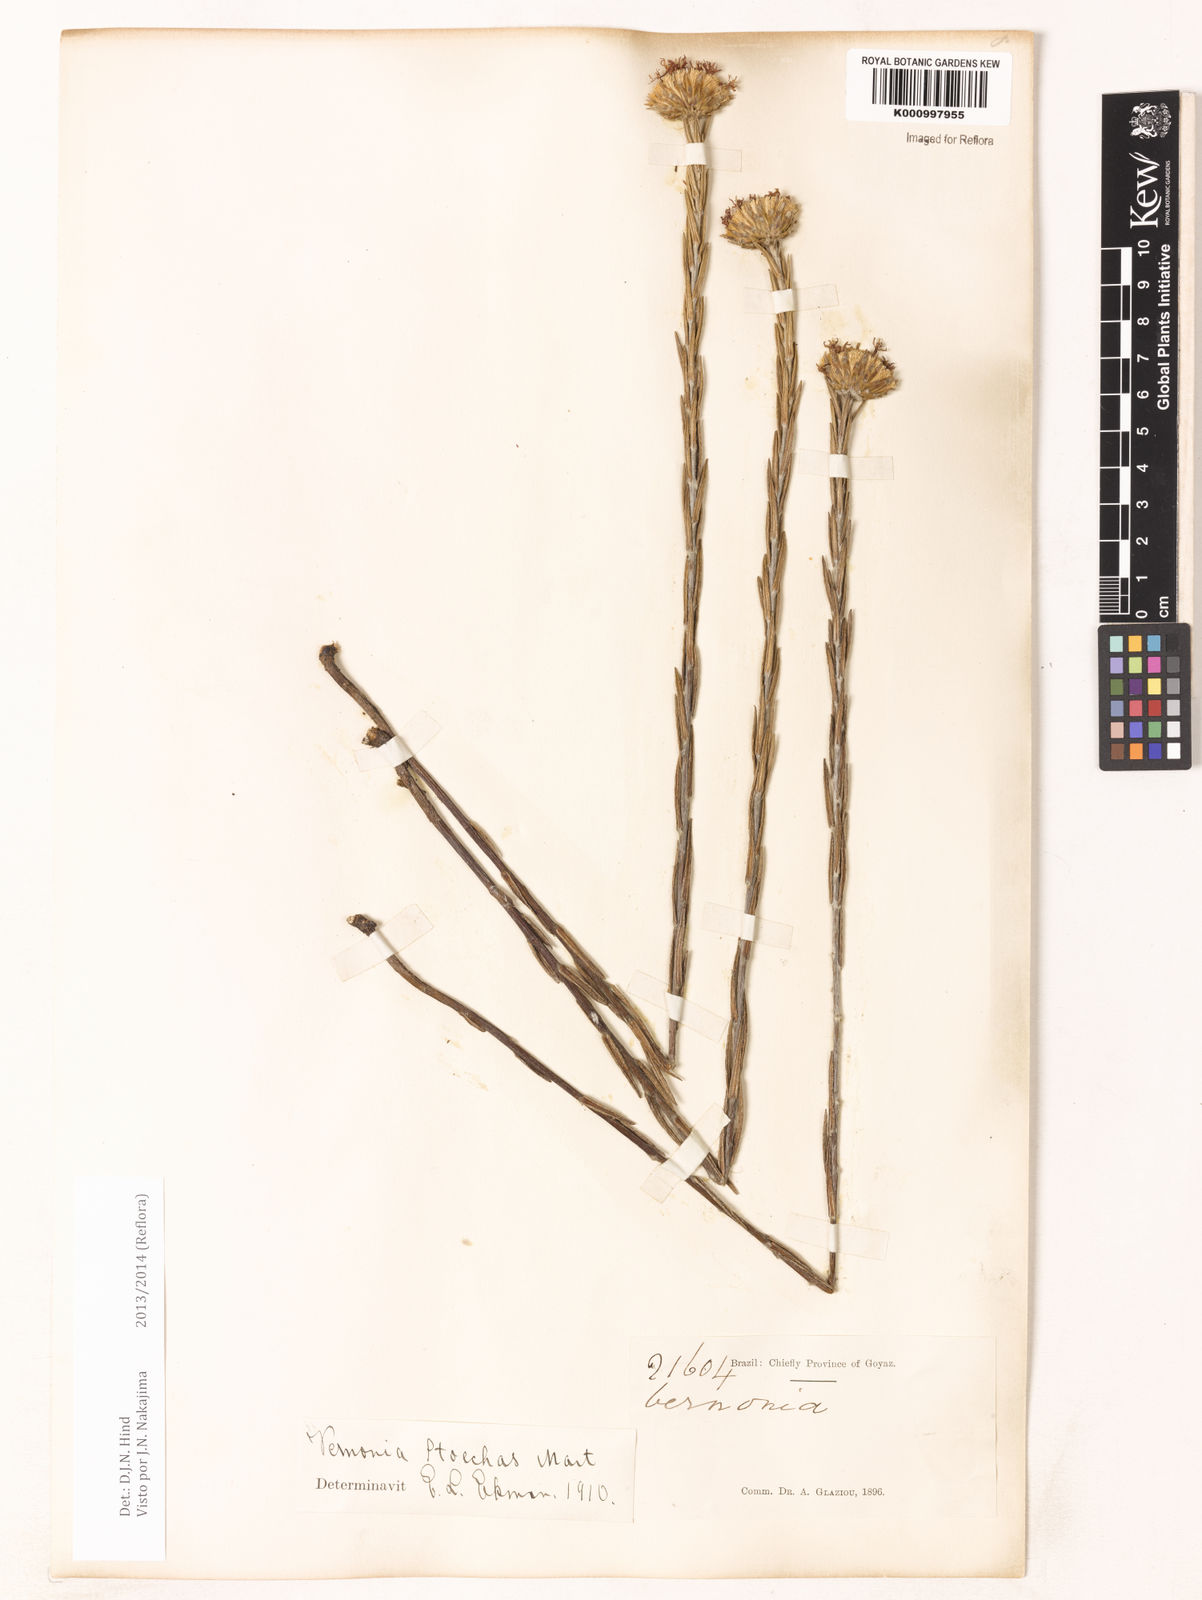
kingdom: Plantae
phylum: Tracheophyta
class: Magnoliopsida
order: Asterales
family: Asteraceae
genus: Lessingianthus
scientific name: Lessingianthus stoechas
